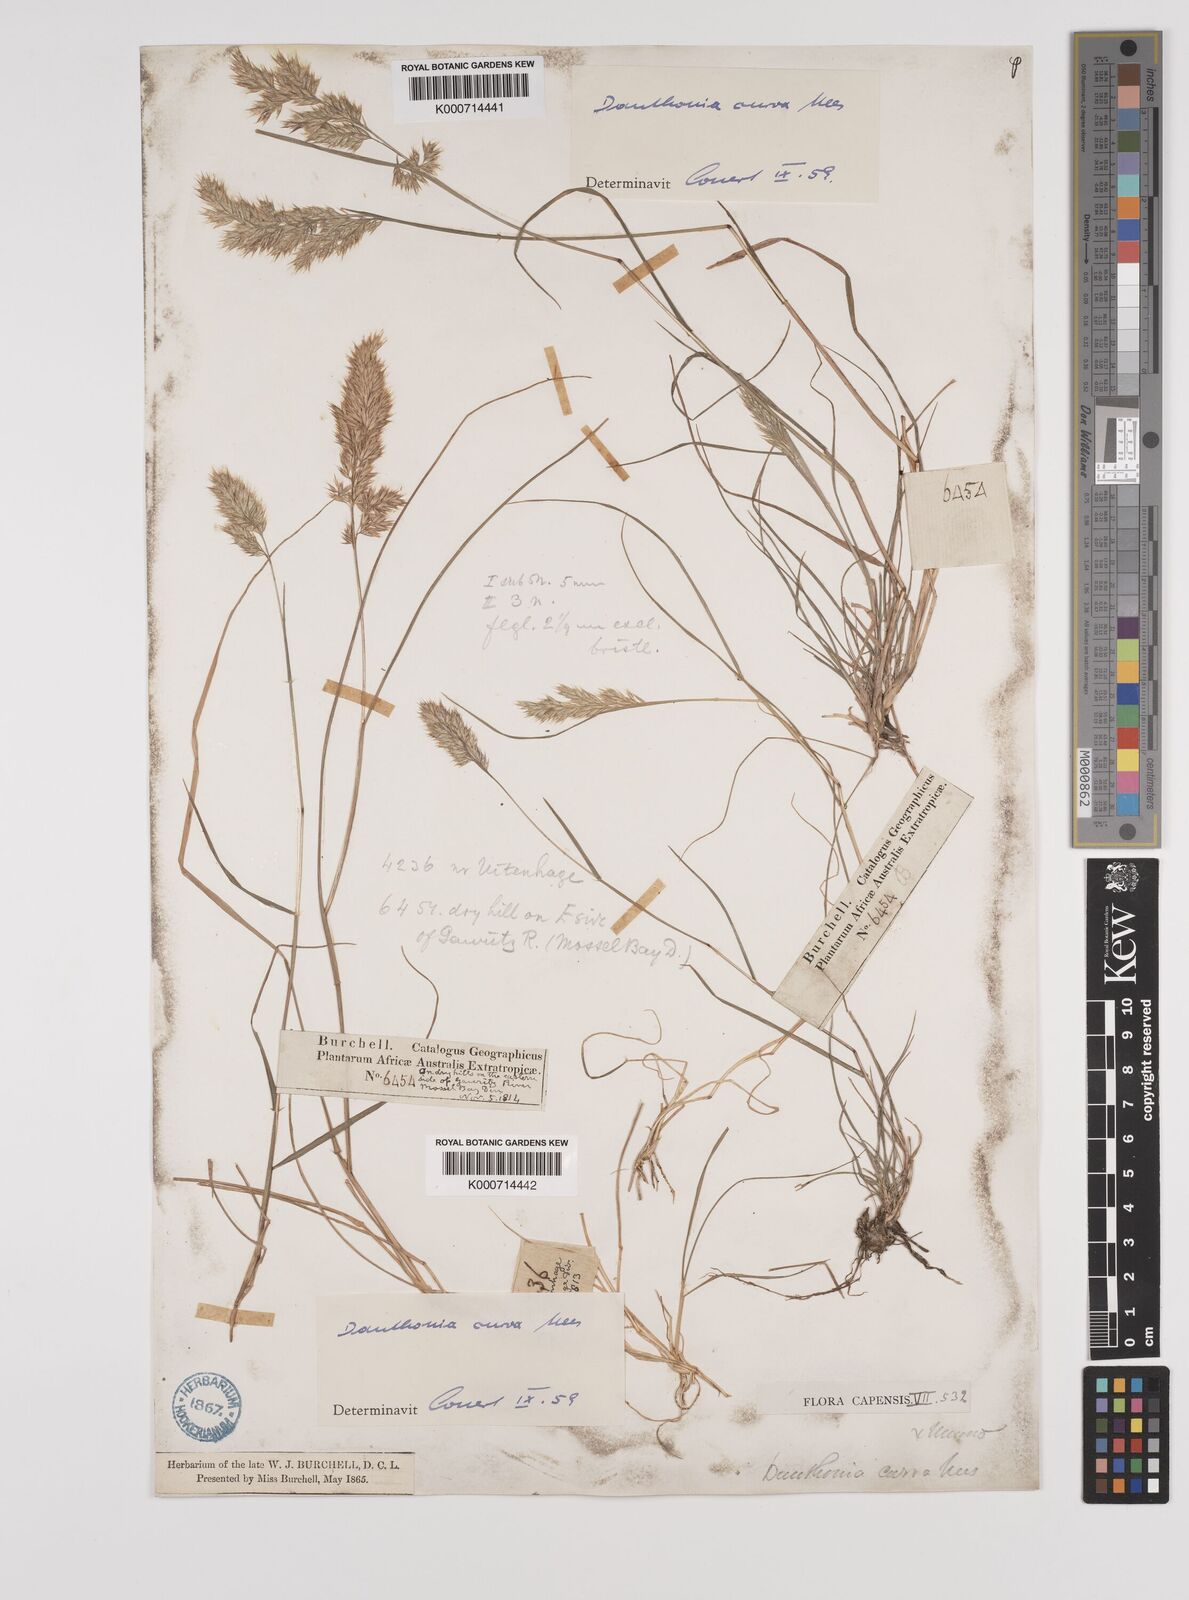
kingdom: Plantae
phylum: Tracheophyta
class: Liliopsida
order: Poales
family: Poaceae
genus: Rytidosperma
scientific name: Rytidosperma
